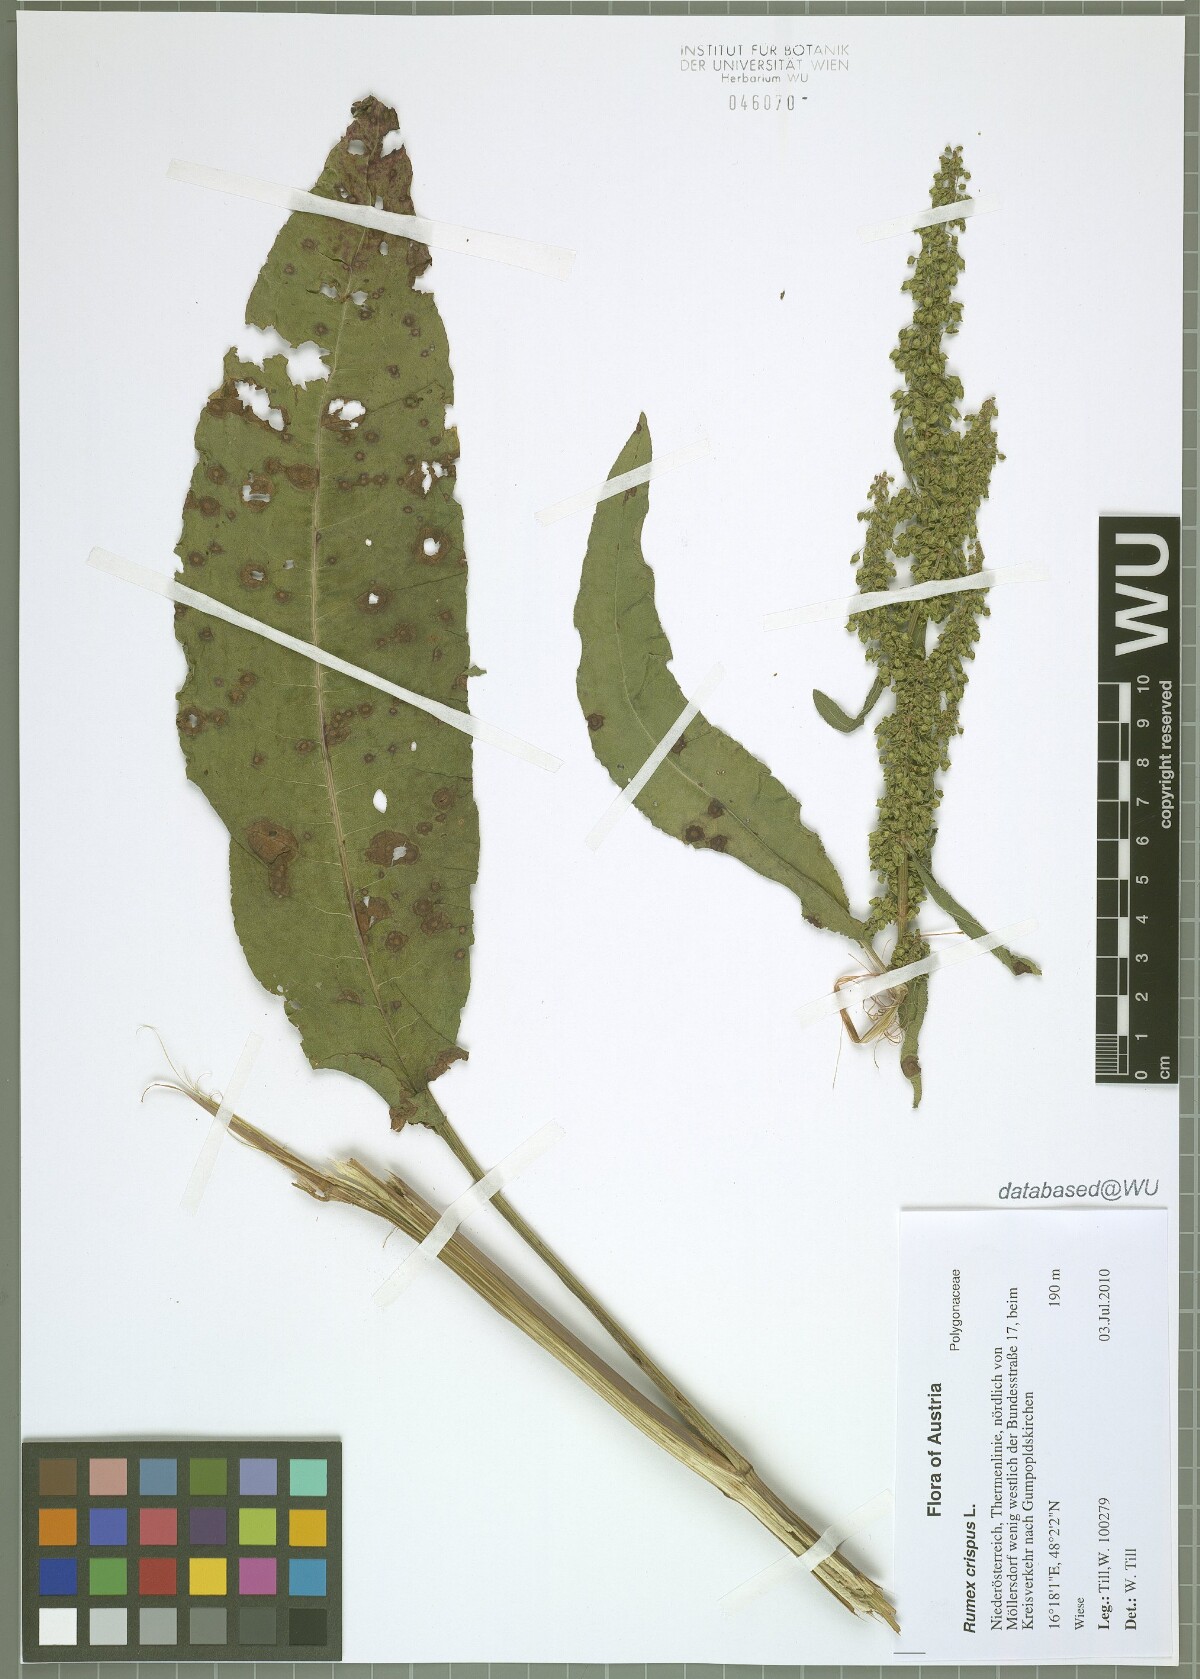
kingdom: Plantae
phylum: Tracheophyta
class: Magnoliopsida
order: Caryophyllales
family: Polygonaceae
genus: Rumex
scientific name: Rumex crispus
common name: Curled dock
